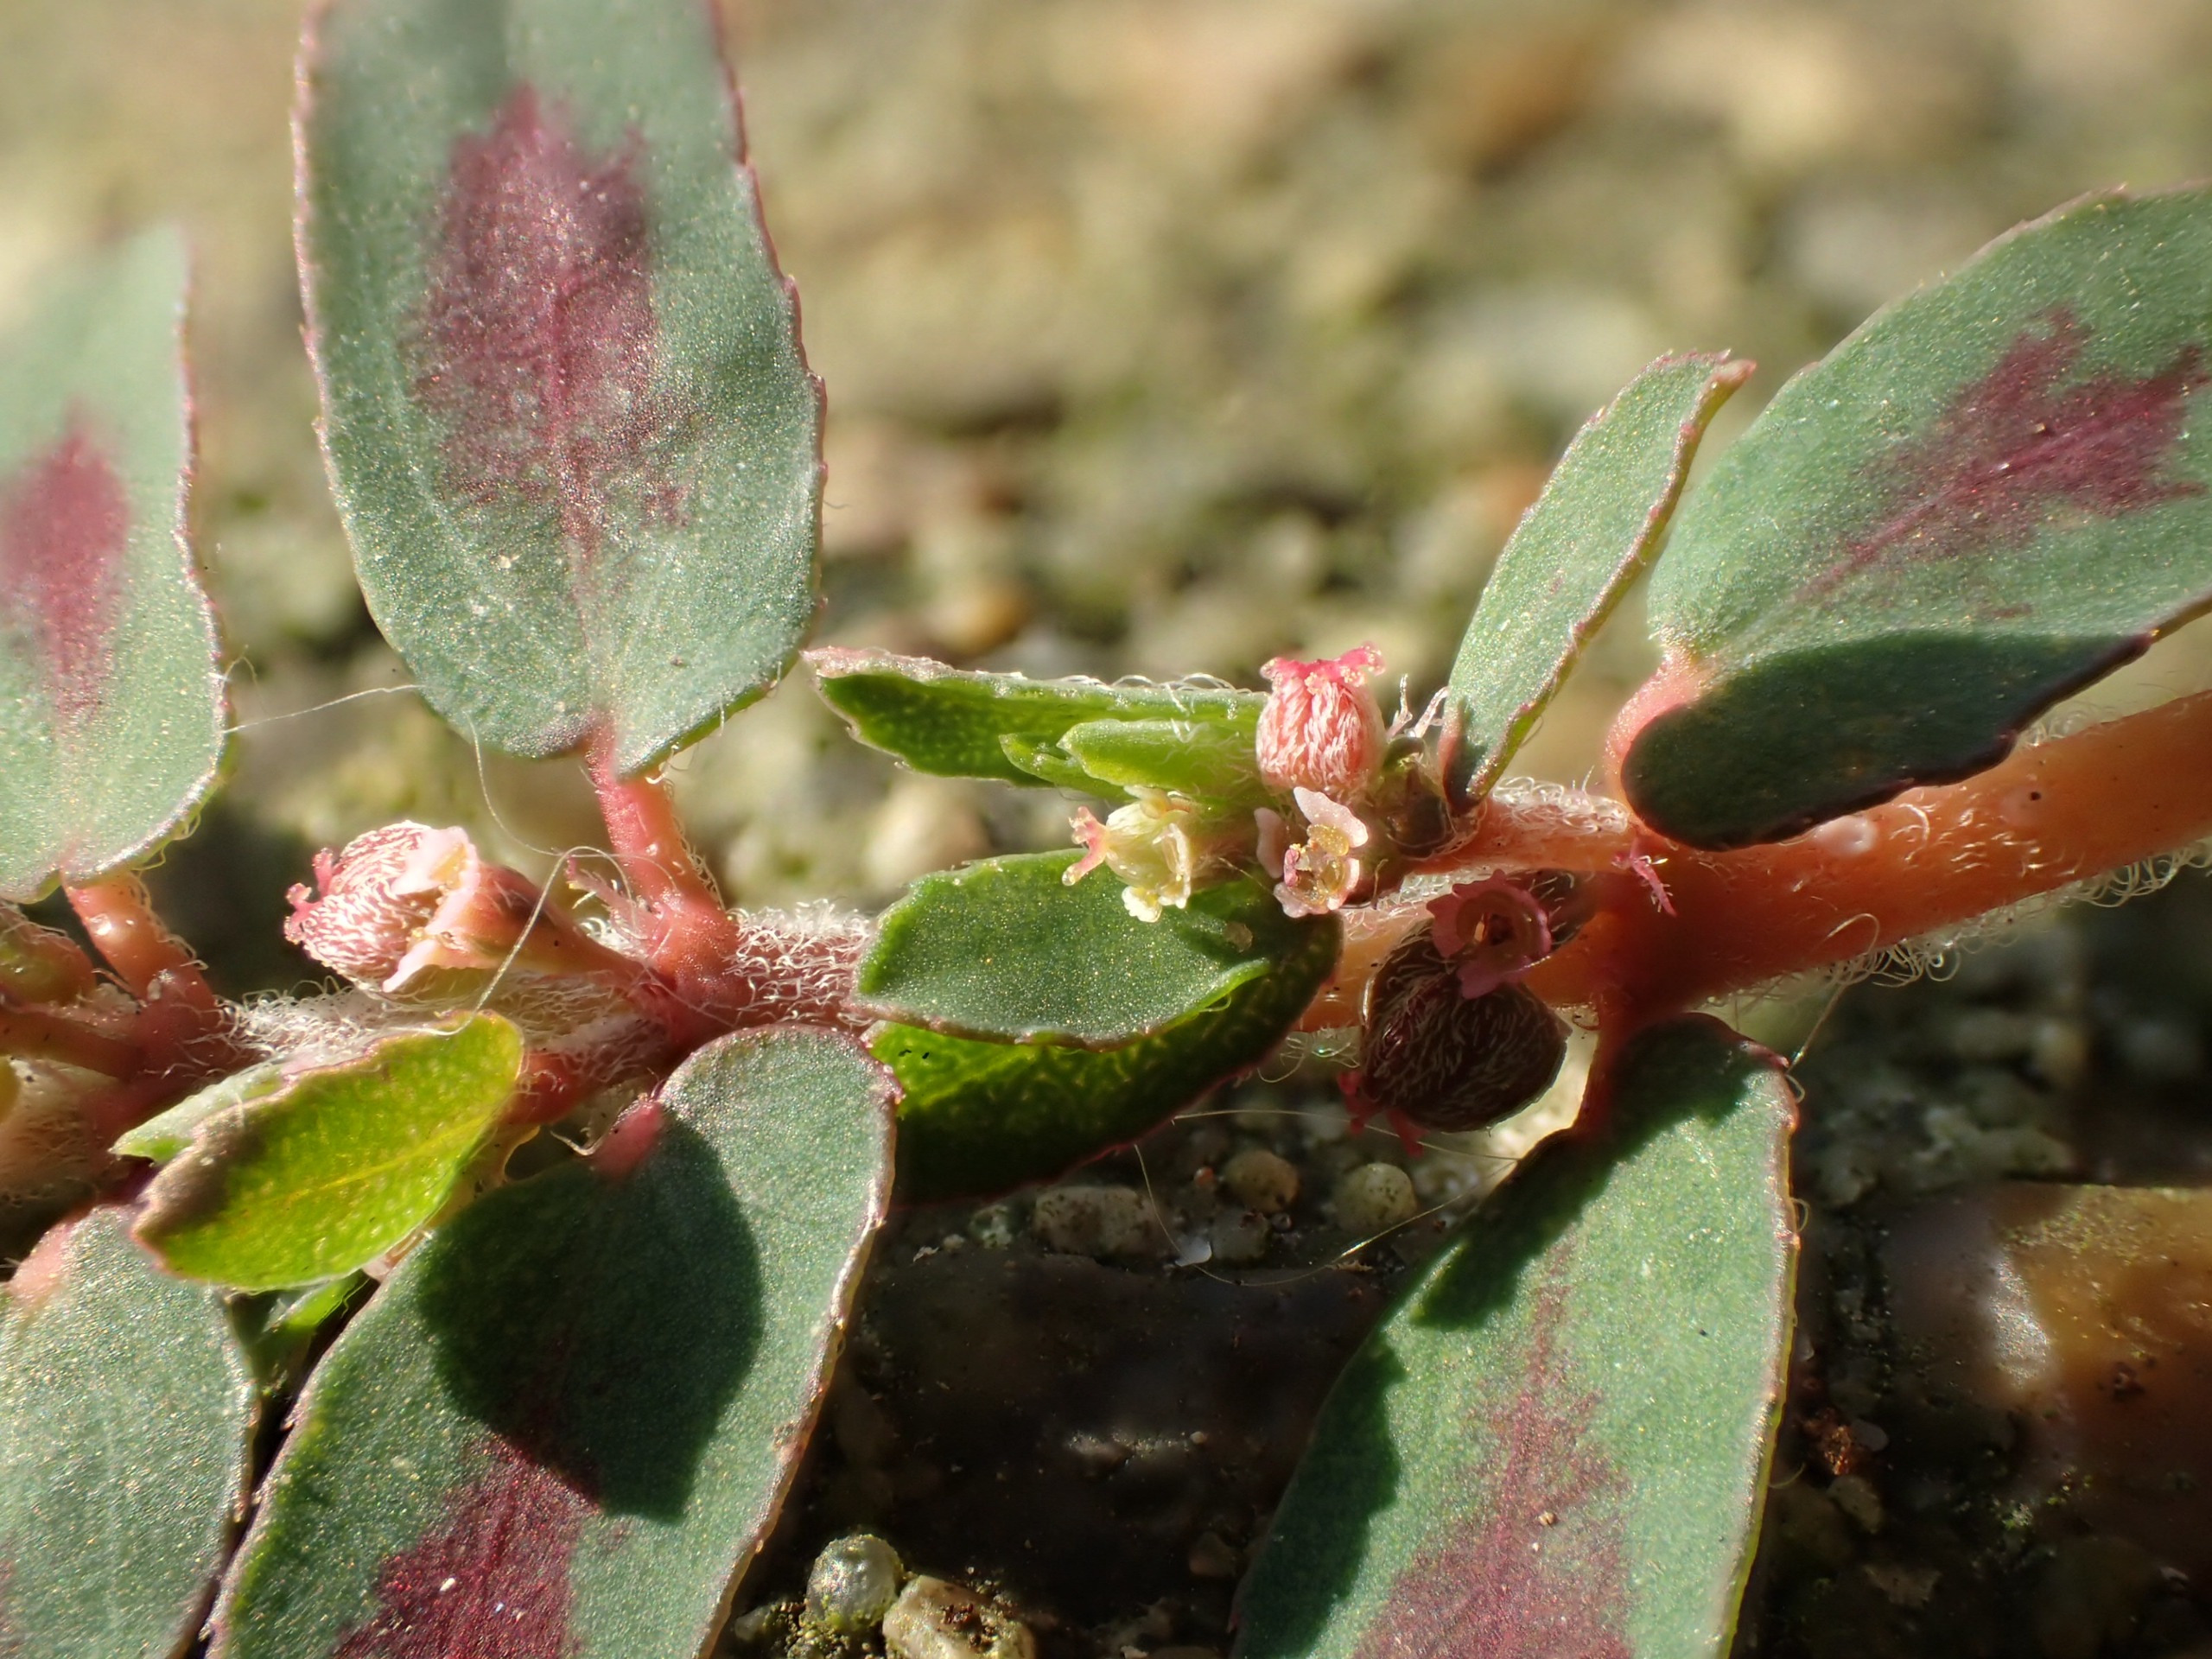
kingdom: Plantae
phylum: Tracheophyta
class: Magnoliopsida
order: Malpighiales
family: Euphorbiaceae
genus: Euphorbia
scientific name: Euphorbia maculata
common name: Plet-vortemælk
